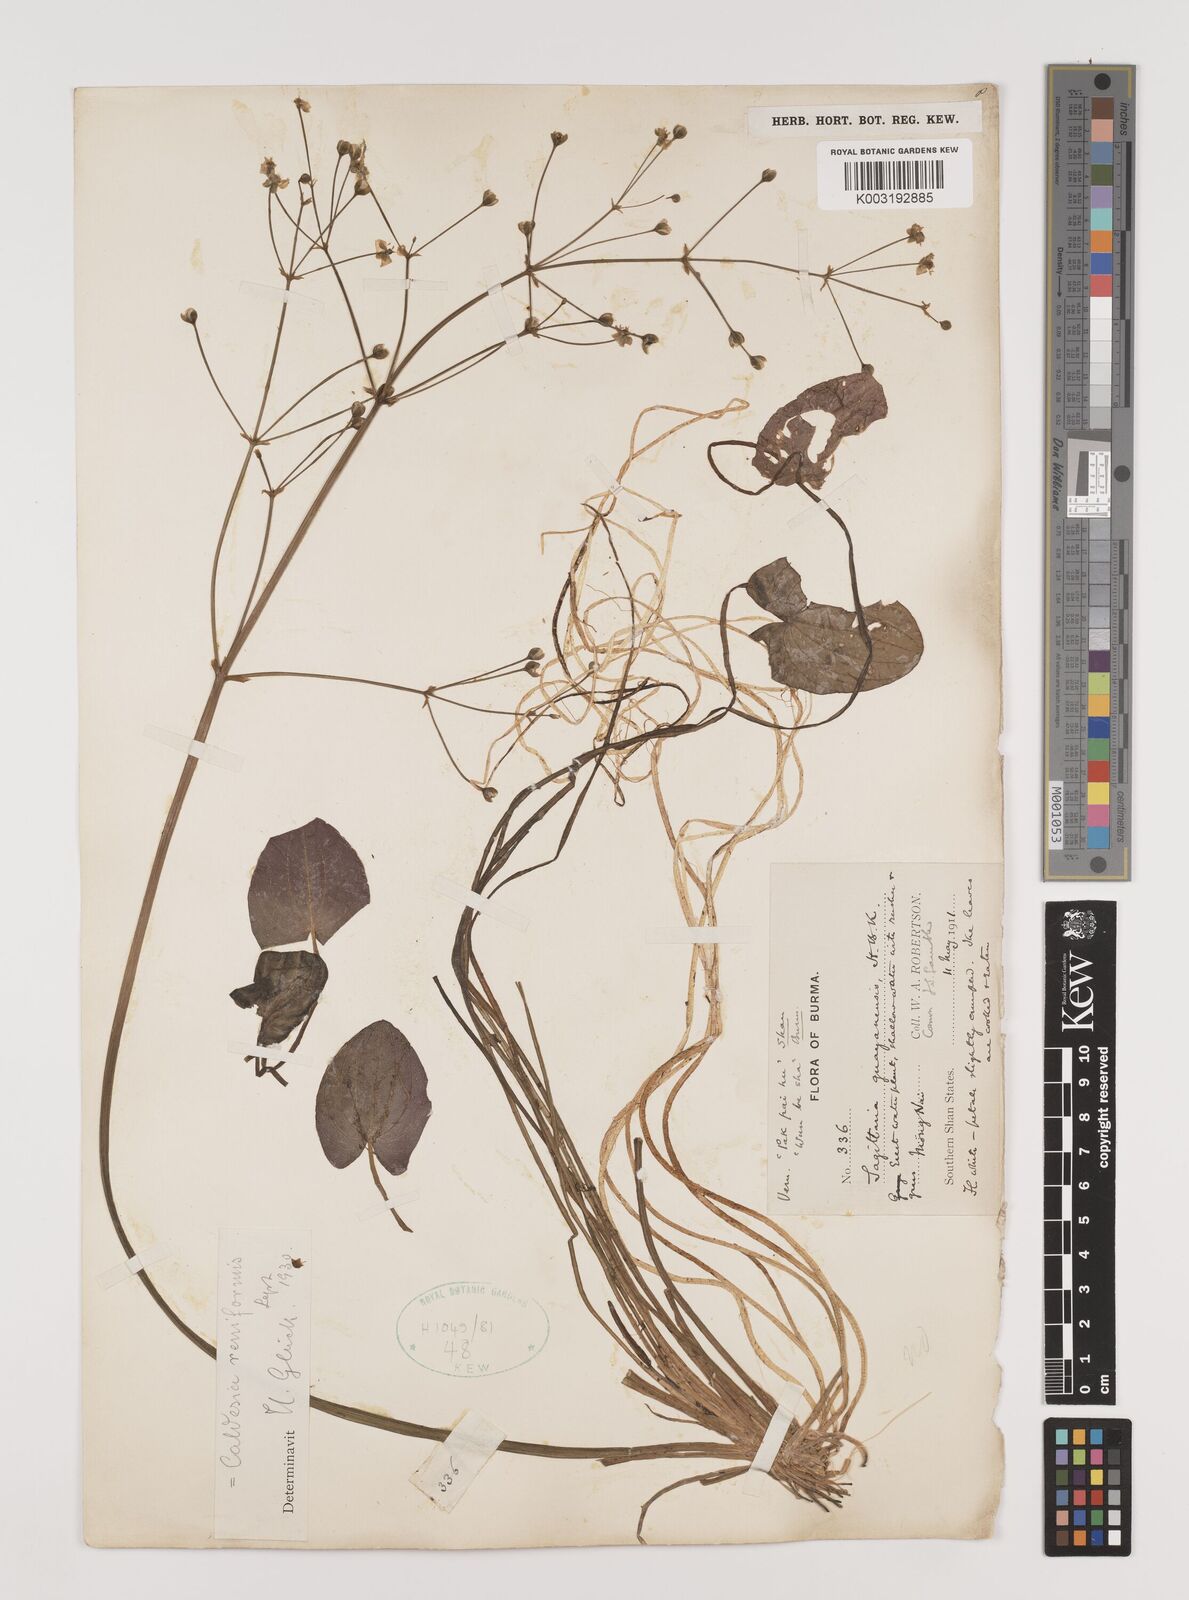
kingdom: Plantae
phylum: Tracheophyta
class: Liliopsida
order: Alismatales
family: Alismataceae
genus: Caldesia
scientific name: Caldesia parnassifolia
